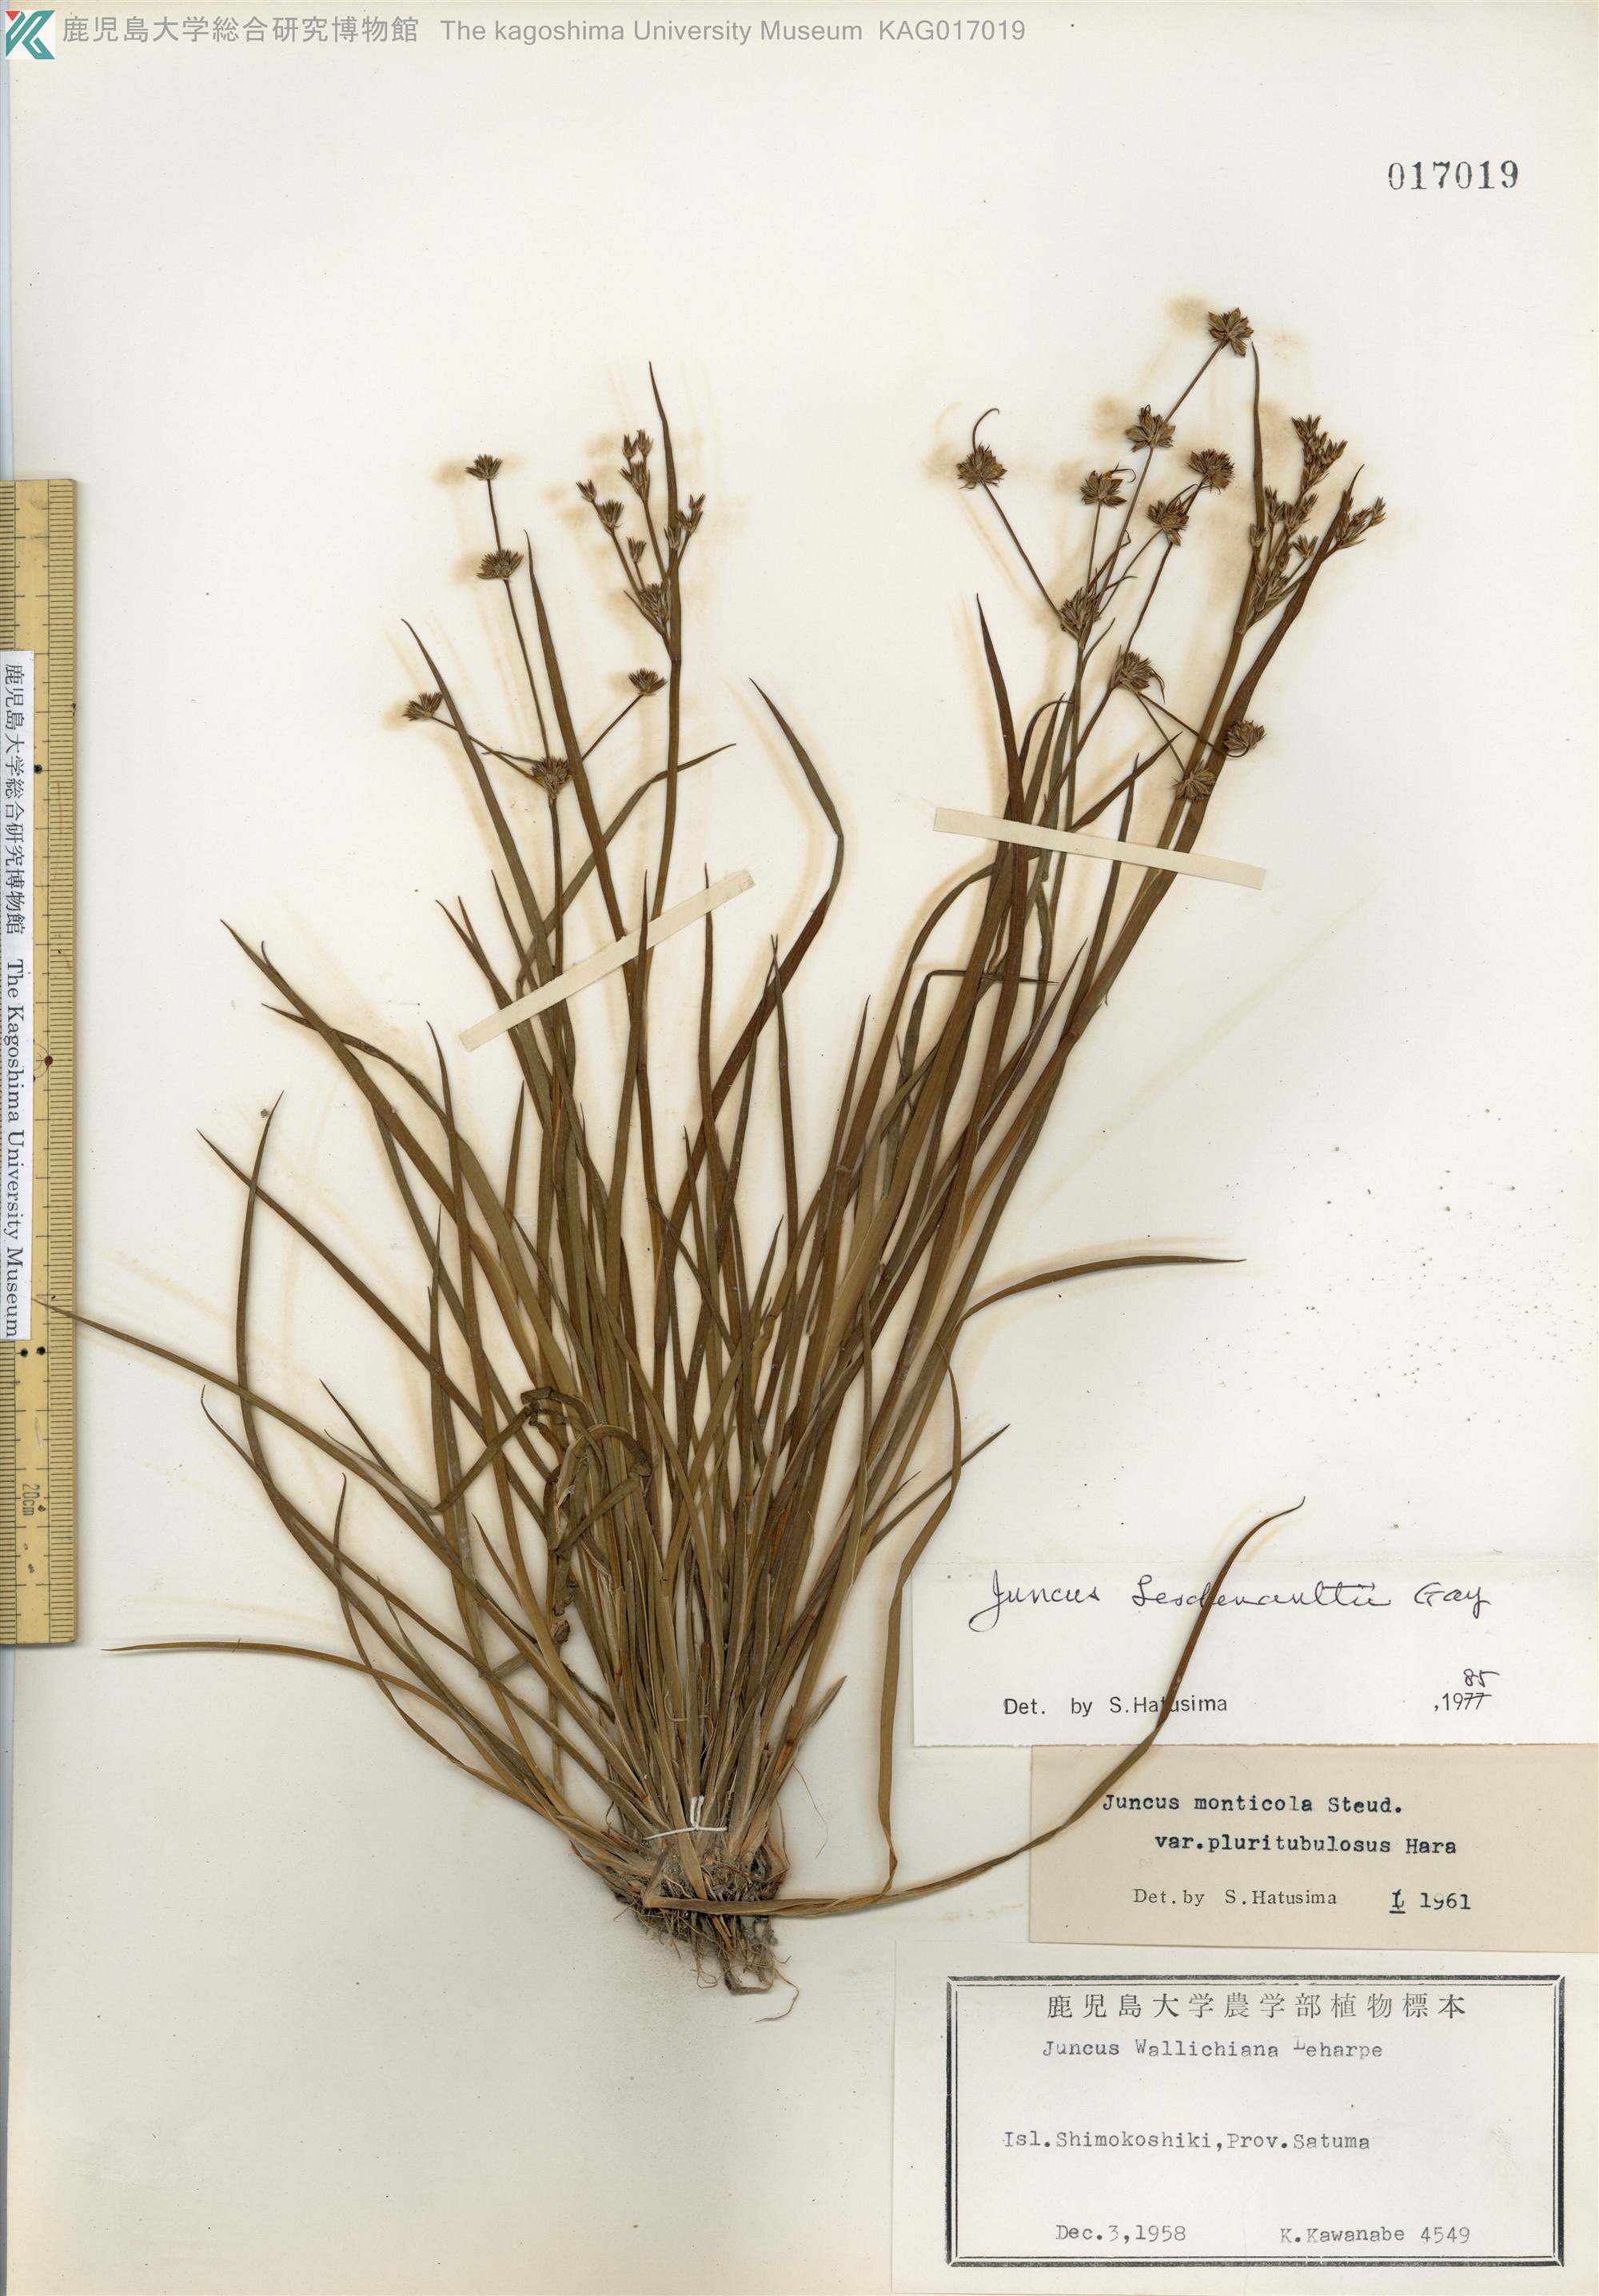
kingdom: Plantae
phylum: Tracheophyta
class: Liliopsida
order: Poales
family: Juncaceae
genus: Juncus
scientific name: Juncus prismatocarpus
